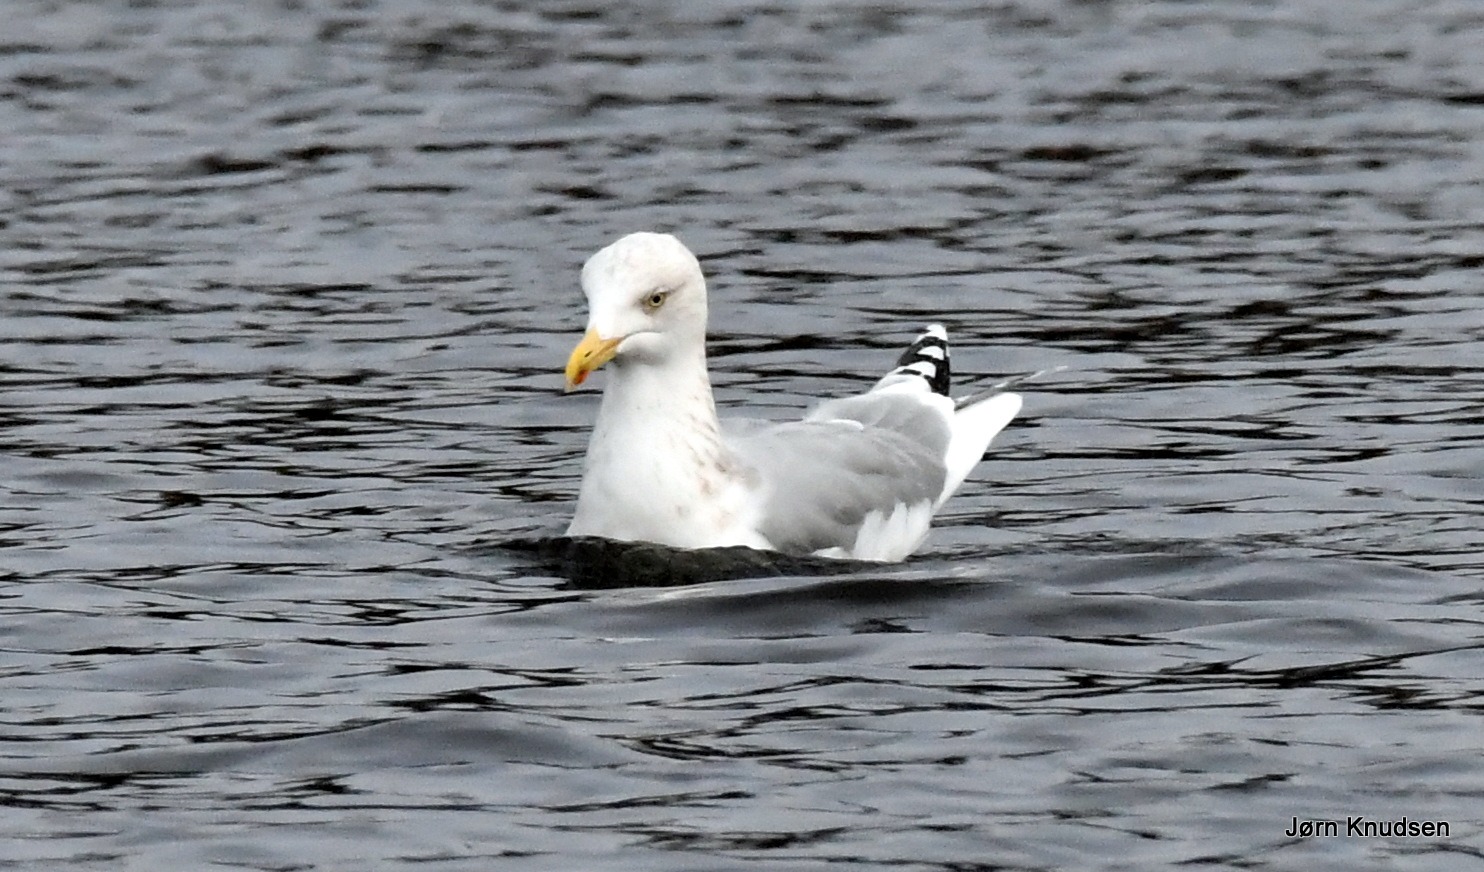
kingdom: Animalia
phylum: Chordata
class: Aves
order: Charadriiformes
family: Laridae
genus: Larus
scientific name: Larus argentatus
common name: Sølvmåge
